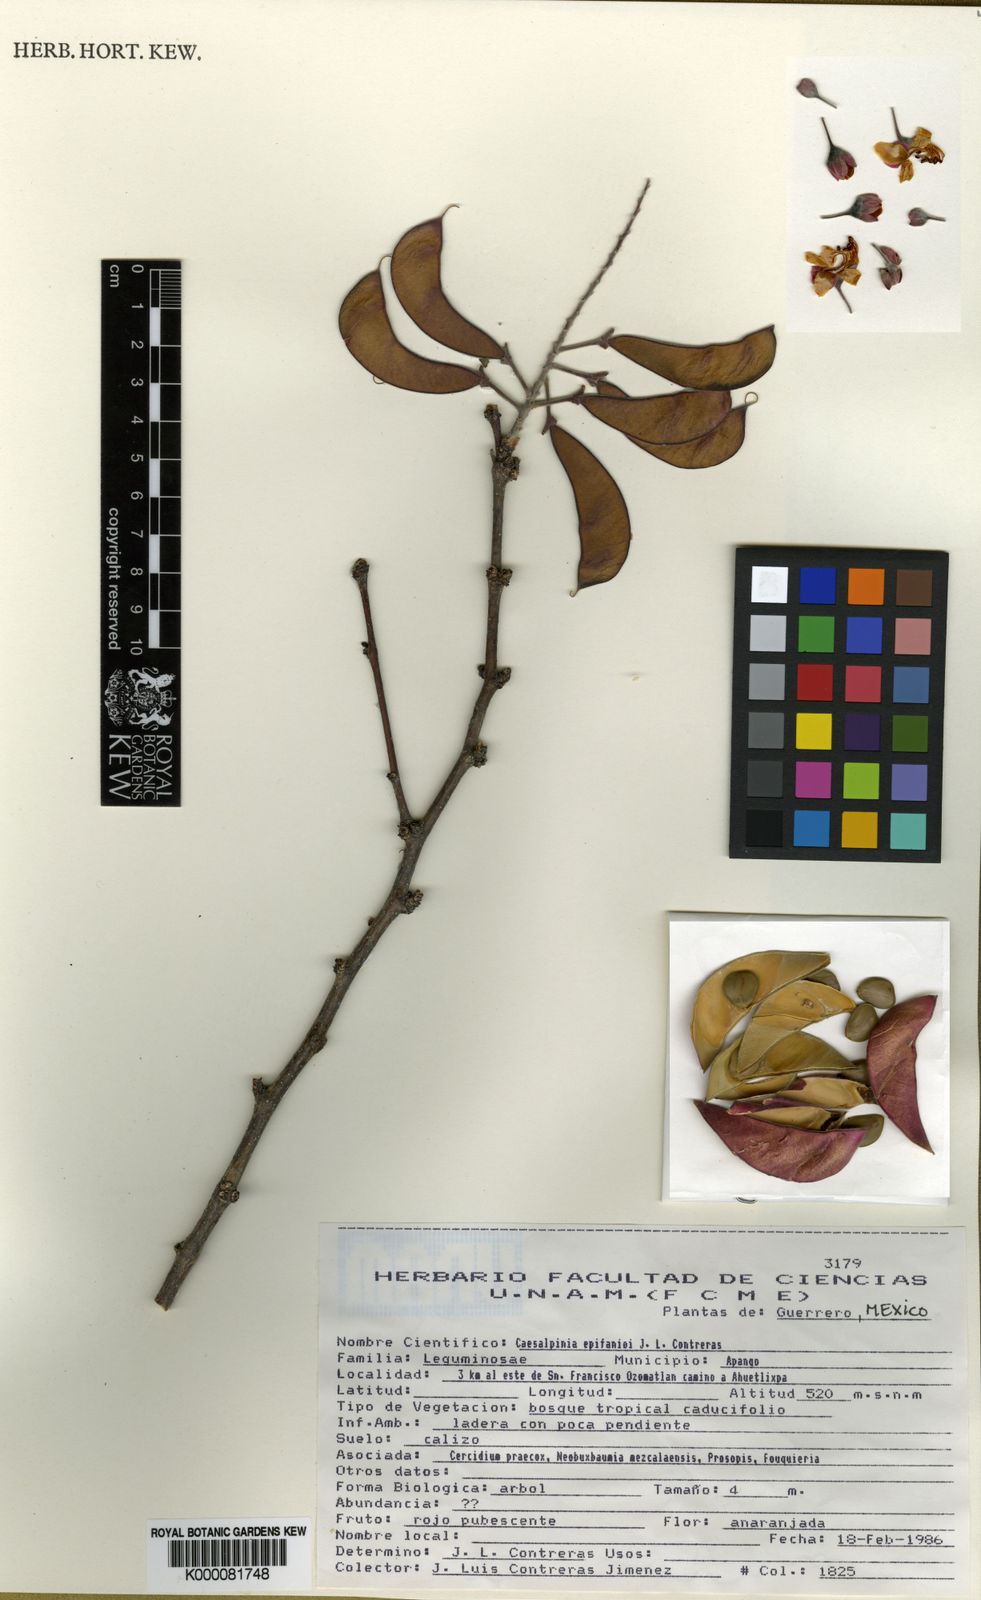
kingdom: Plantae
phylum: Tracheophyta
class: Magnoliopsida
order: Fabales
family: Fabaceae
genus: Erythrostemon
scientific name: Erythrostemon epifanioi
